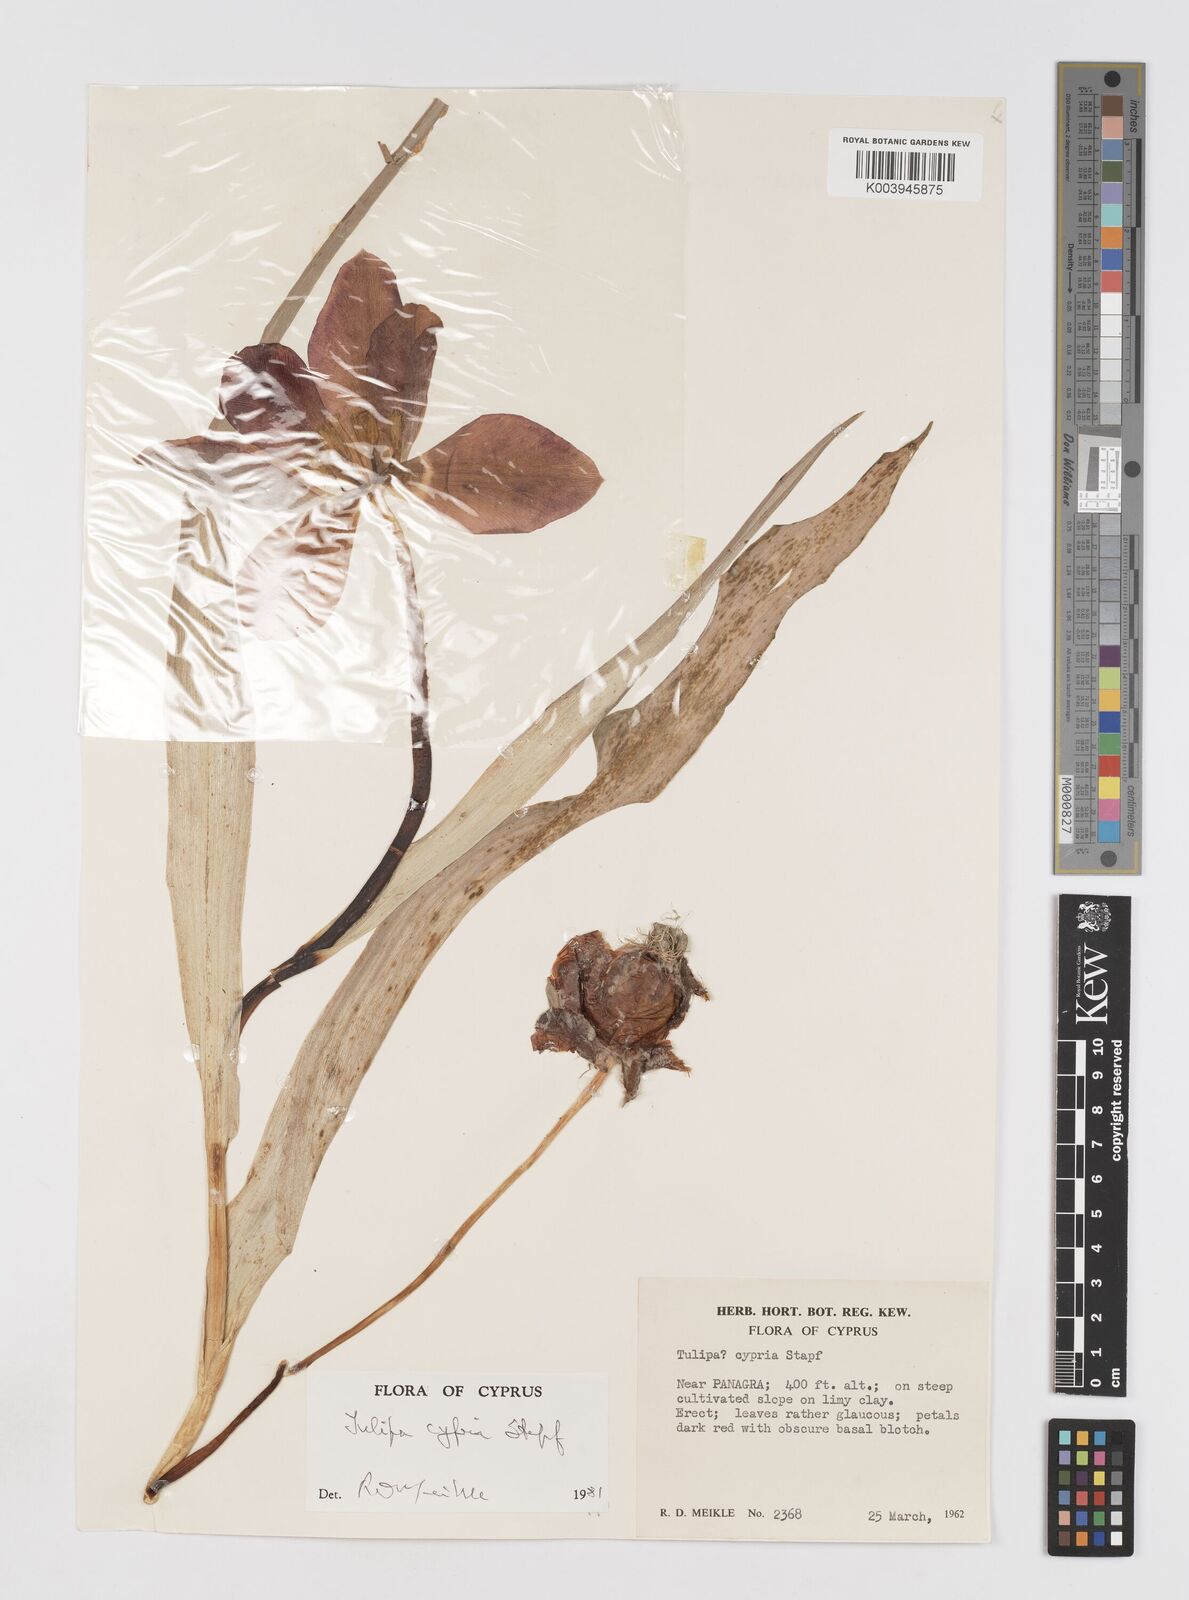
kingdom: Plantae
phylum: Tracheophyta
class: Liliopsida
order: Liliales
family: Liliaceae
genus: Tulipa
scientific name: Tulipa cypria
